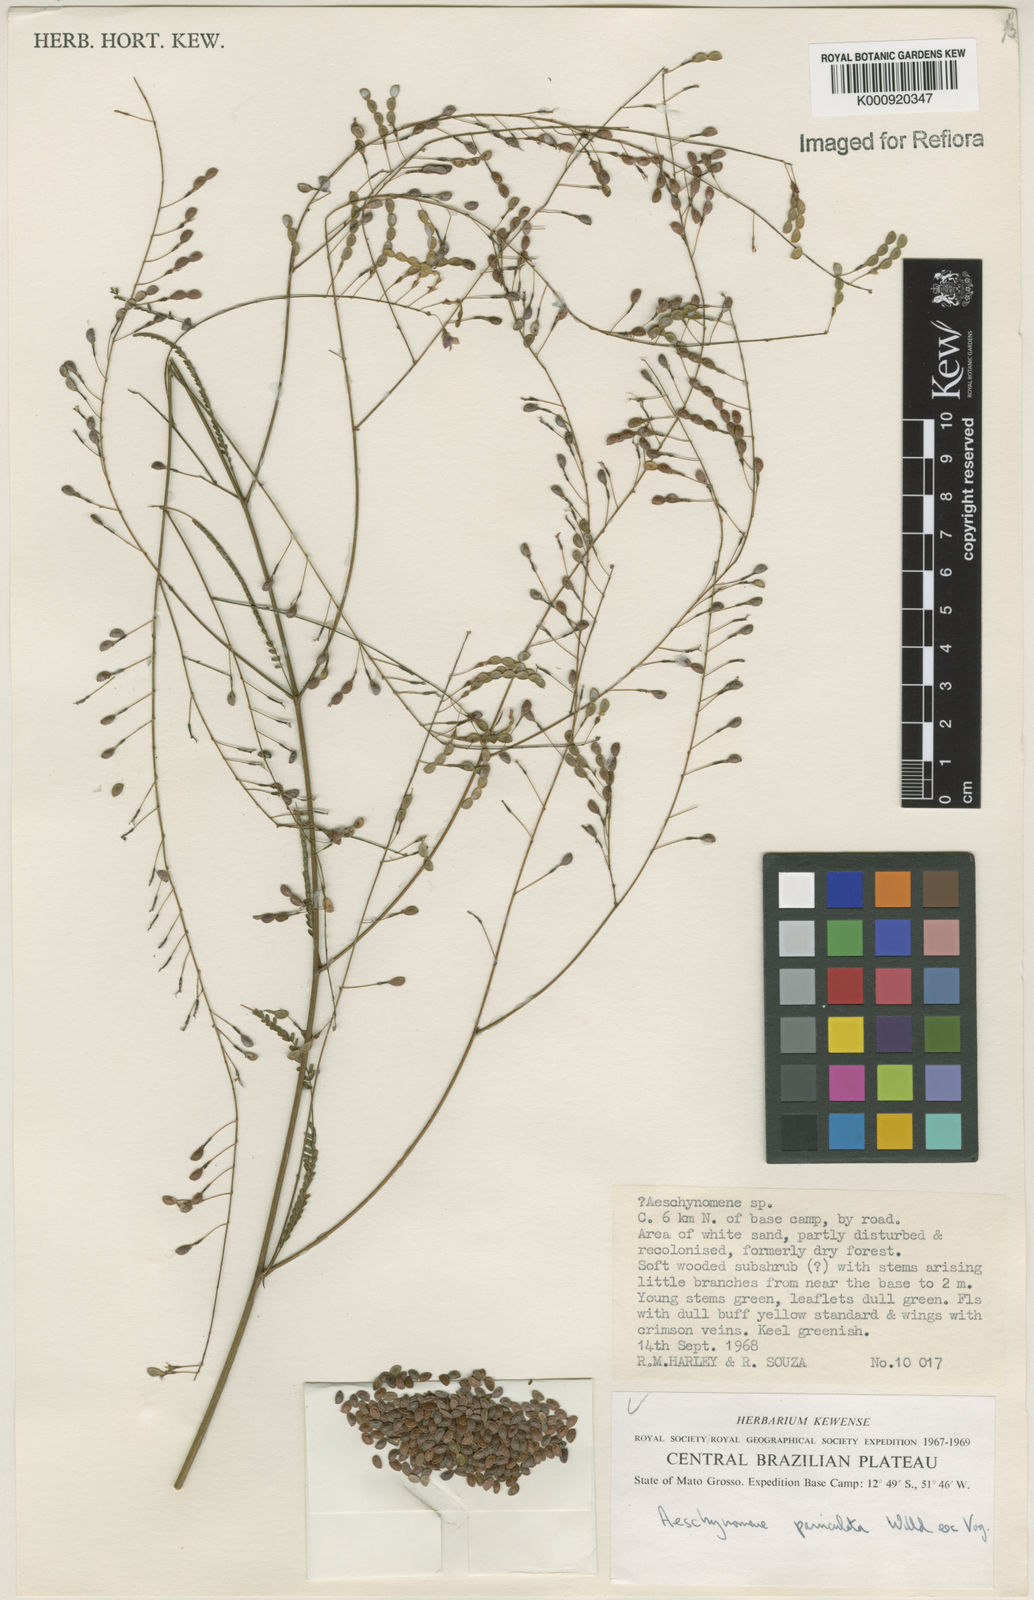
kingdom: Plantae
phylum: Tracheophyta
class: Magnoliopsida
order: Fabales
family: Fabaceae
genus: Ctenodon
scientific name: Ctenodon paniculatus
